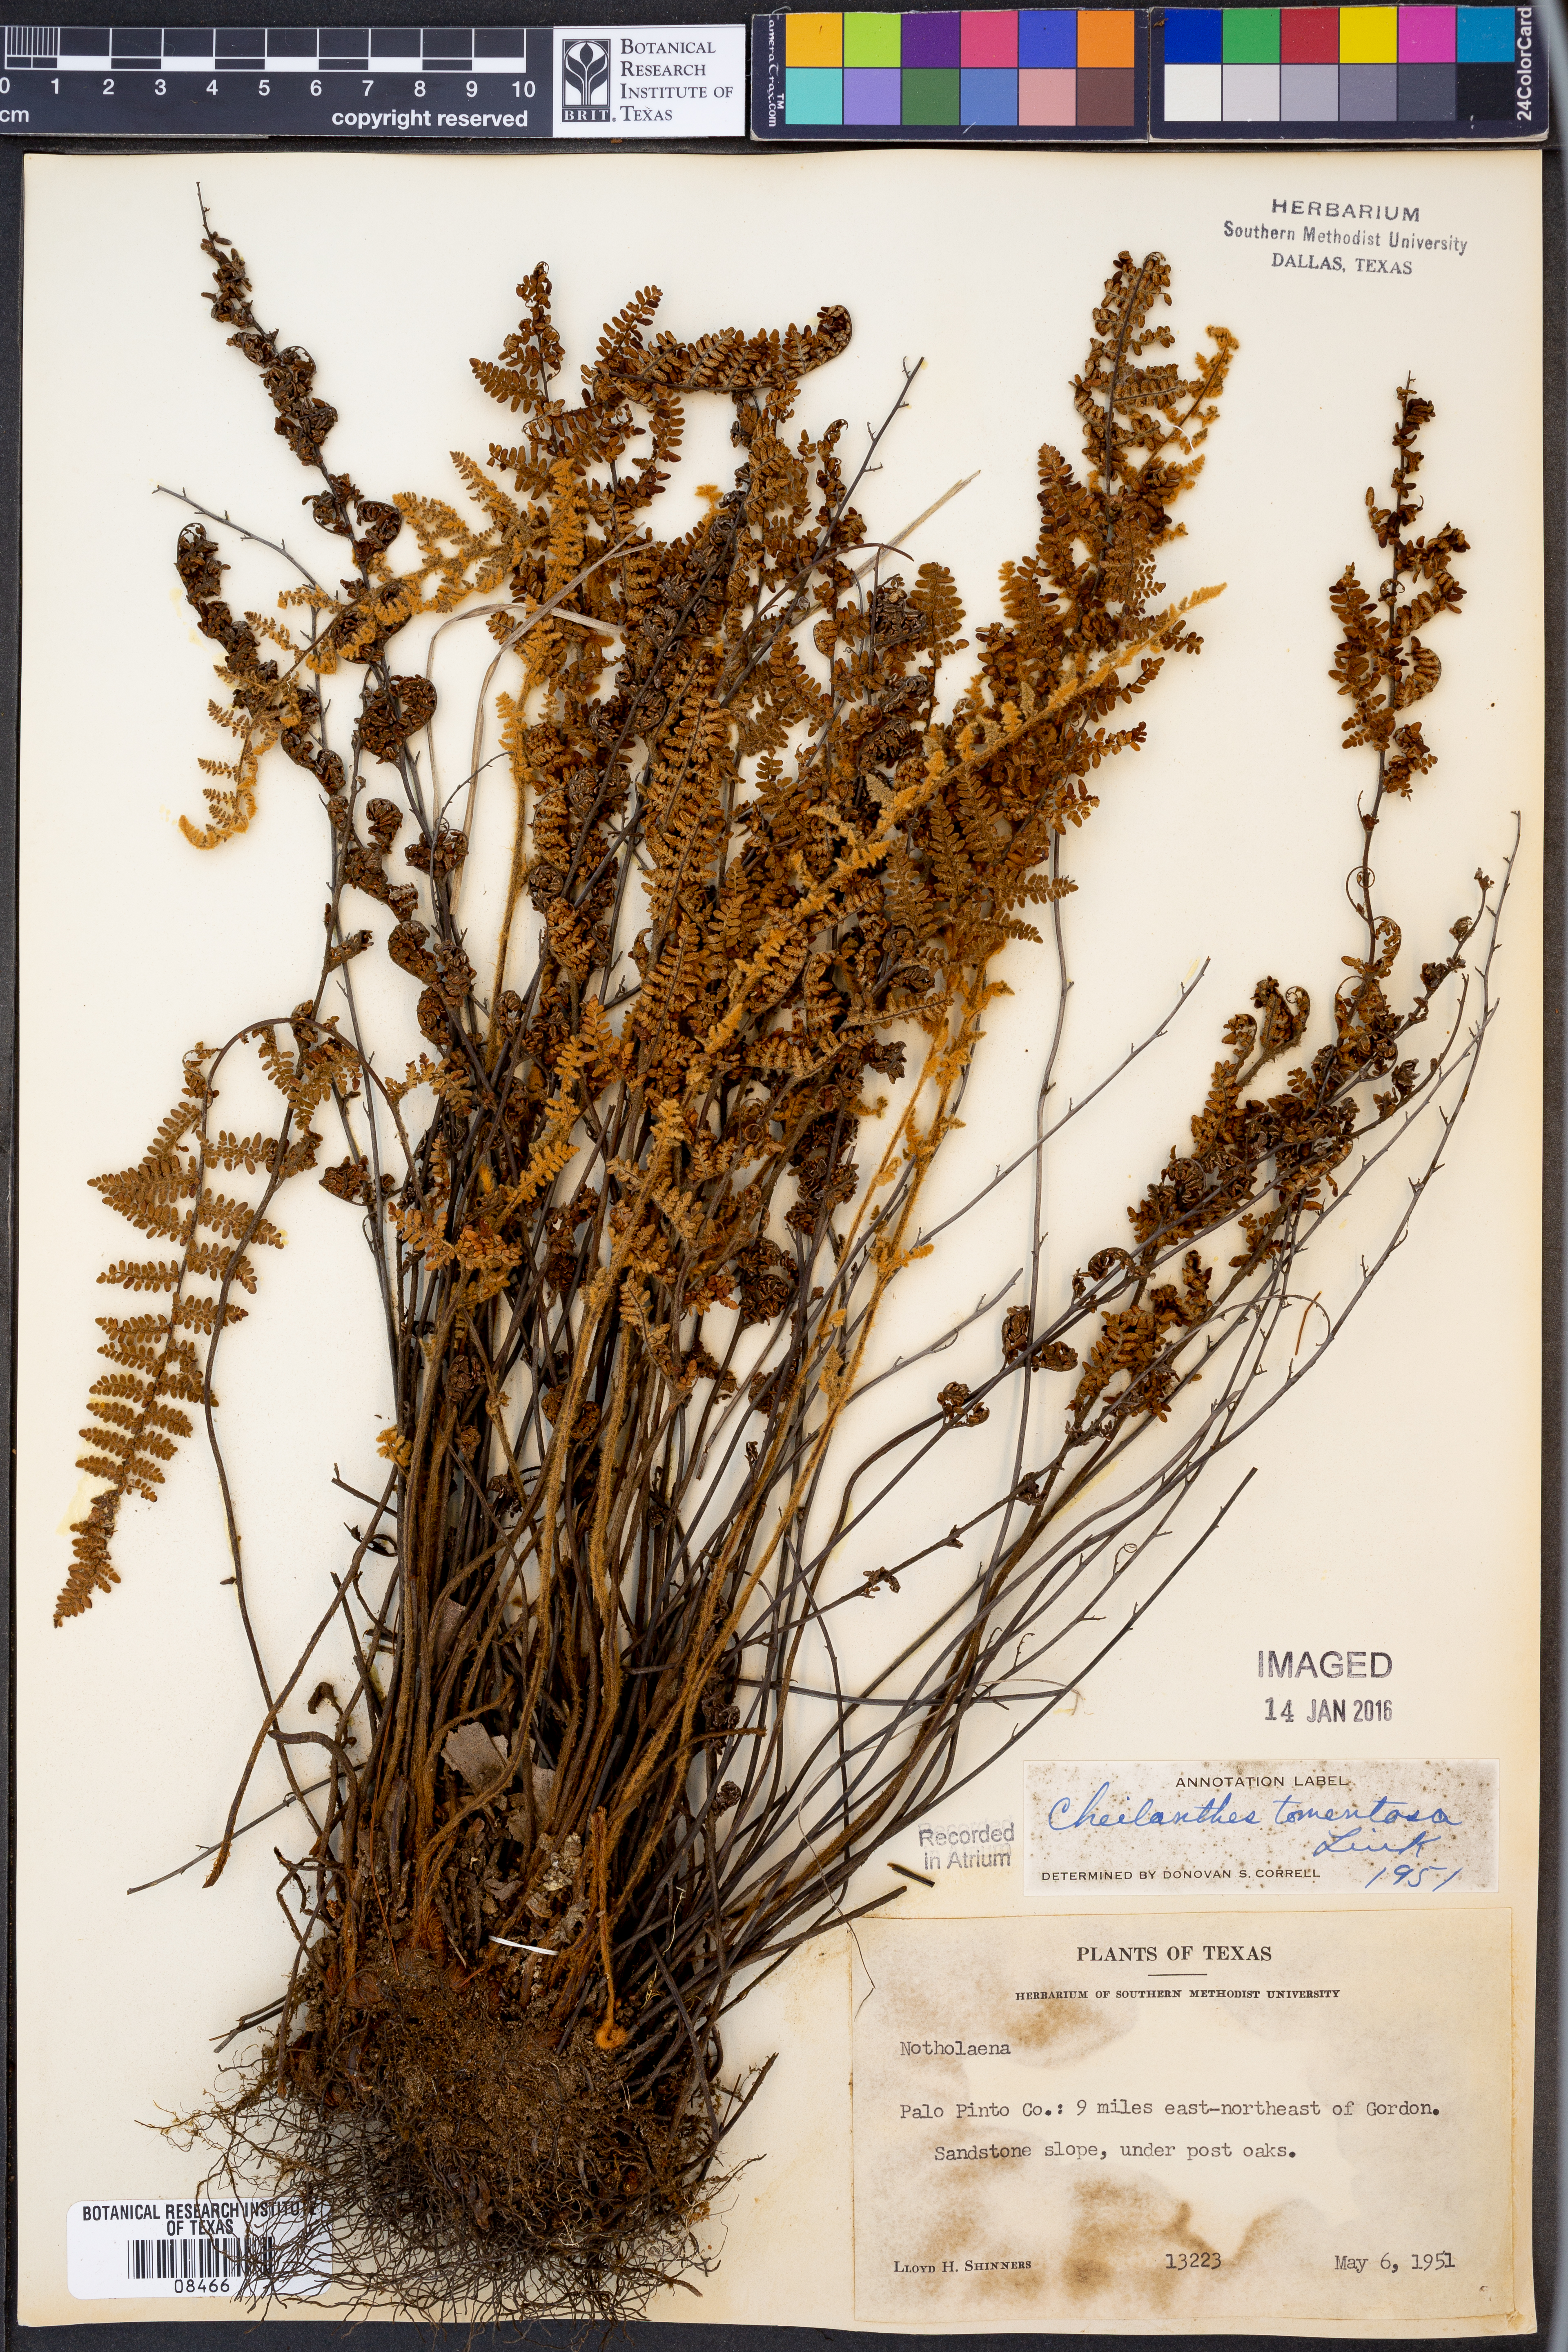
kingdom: Plantae
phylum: Tracheophyta
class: Polypodiopsida
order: Polypodiales
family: Pteridaceae
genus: Myriopteris
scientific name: Myriopteris tomentosa
